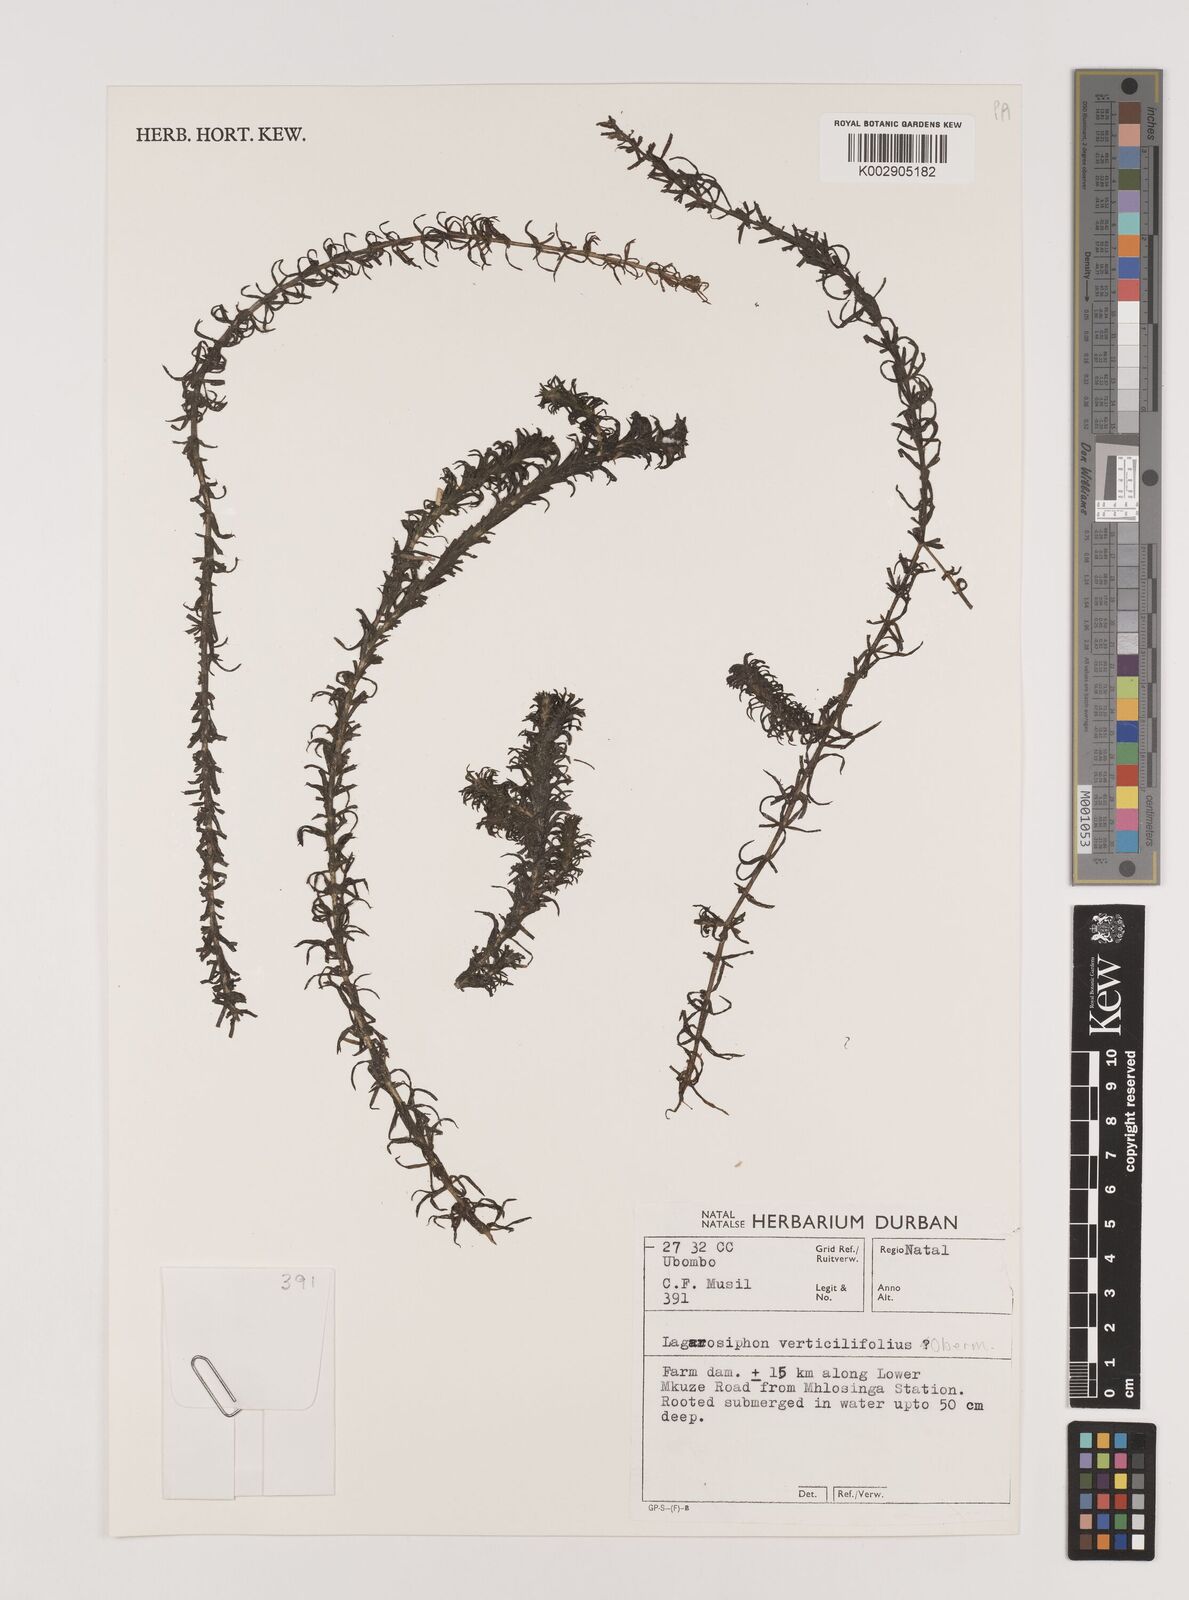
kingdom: Plantae
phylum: Tracheophyta
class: Liliopsida
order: Alismatales
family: Hydrocharitaceae
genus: Lagarosiphon
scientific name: Lagarosiphon verticillifolius
